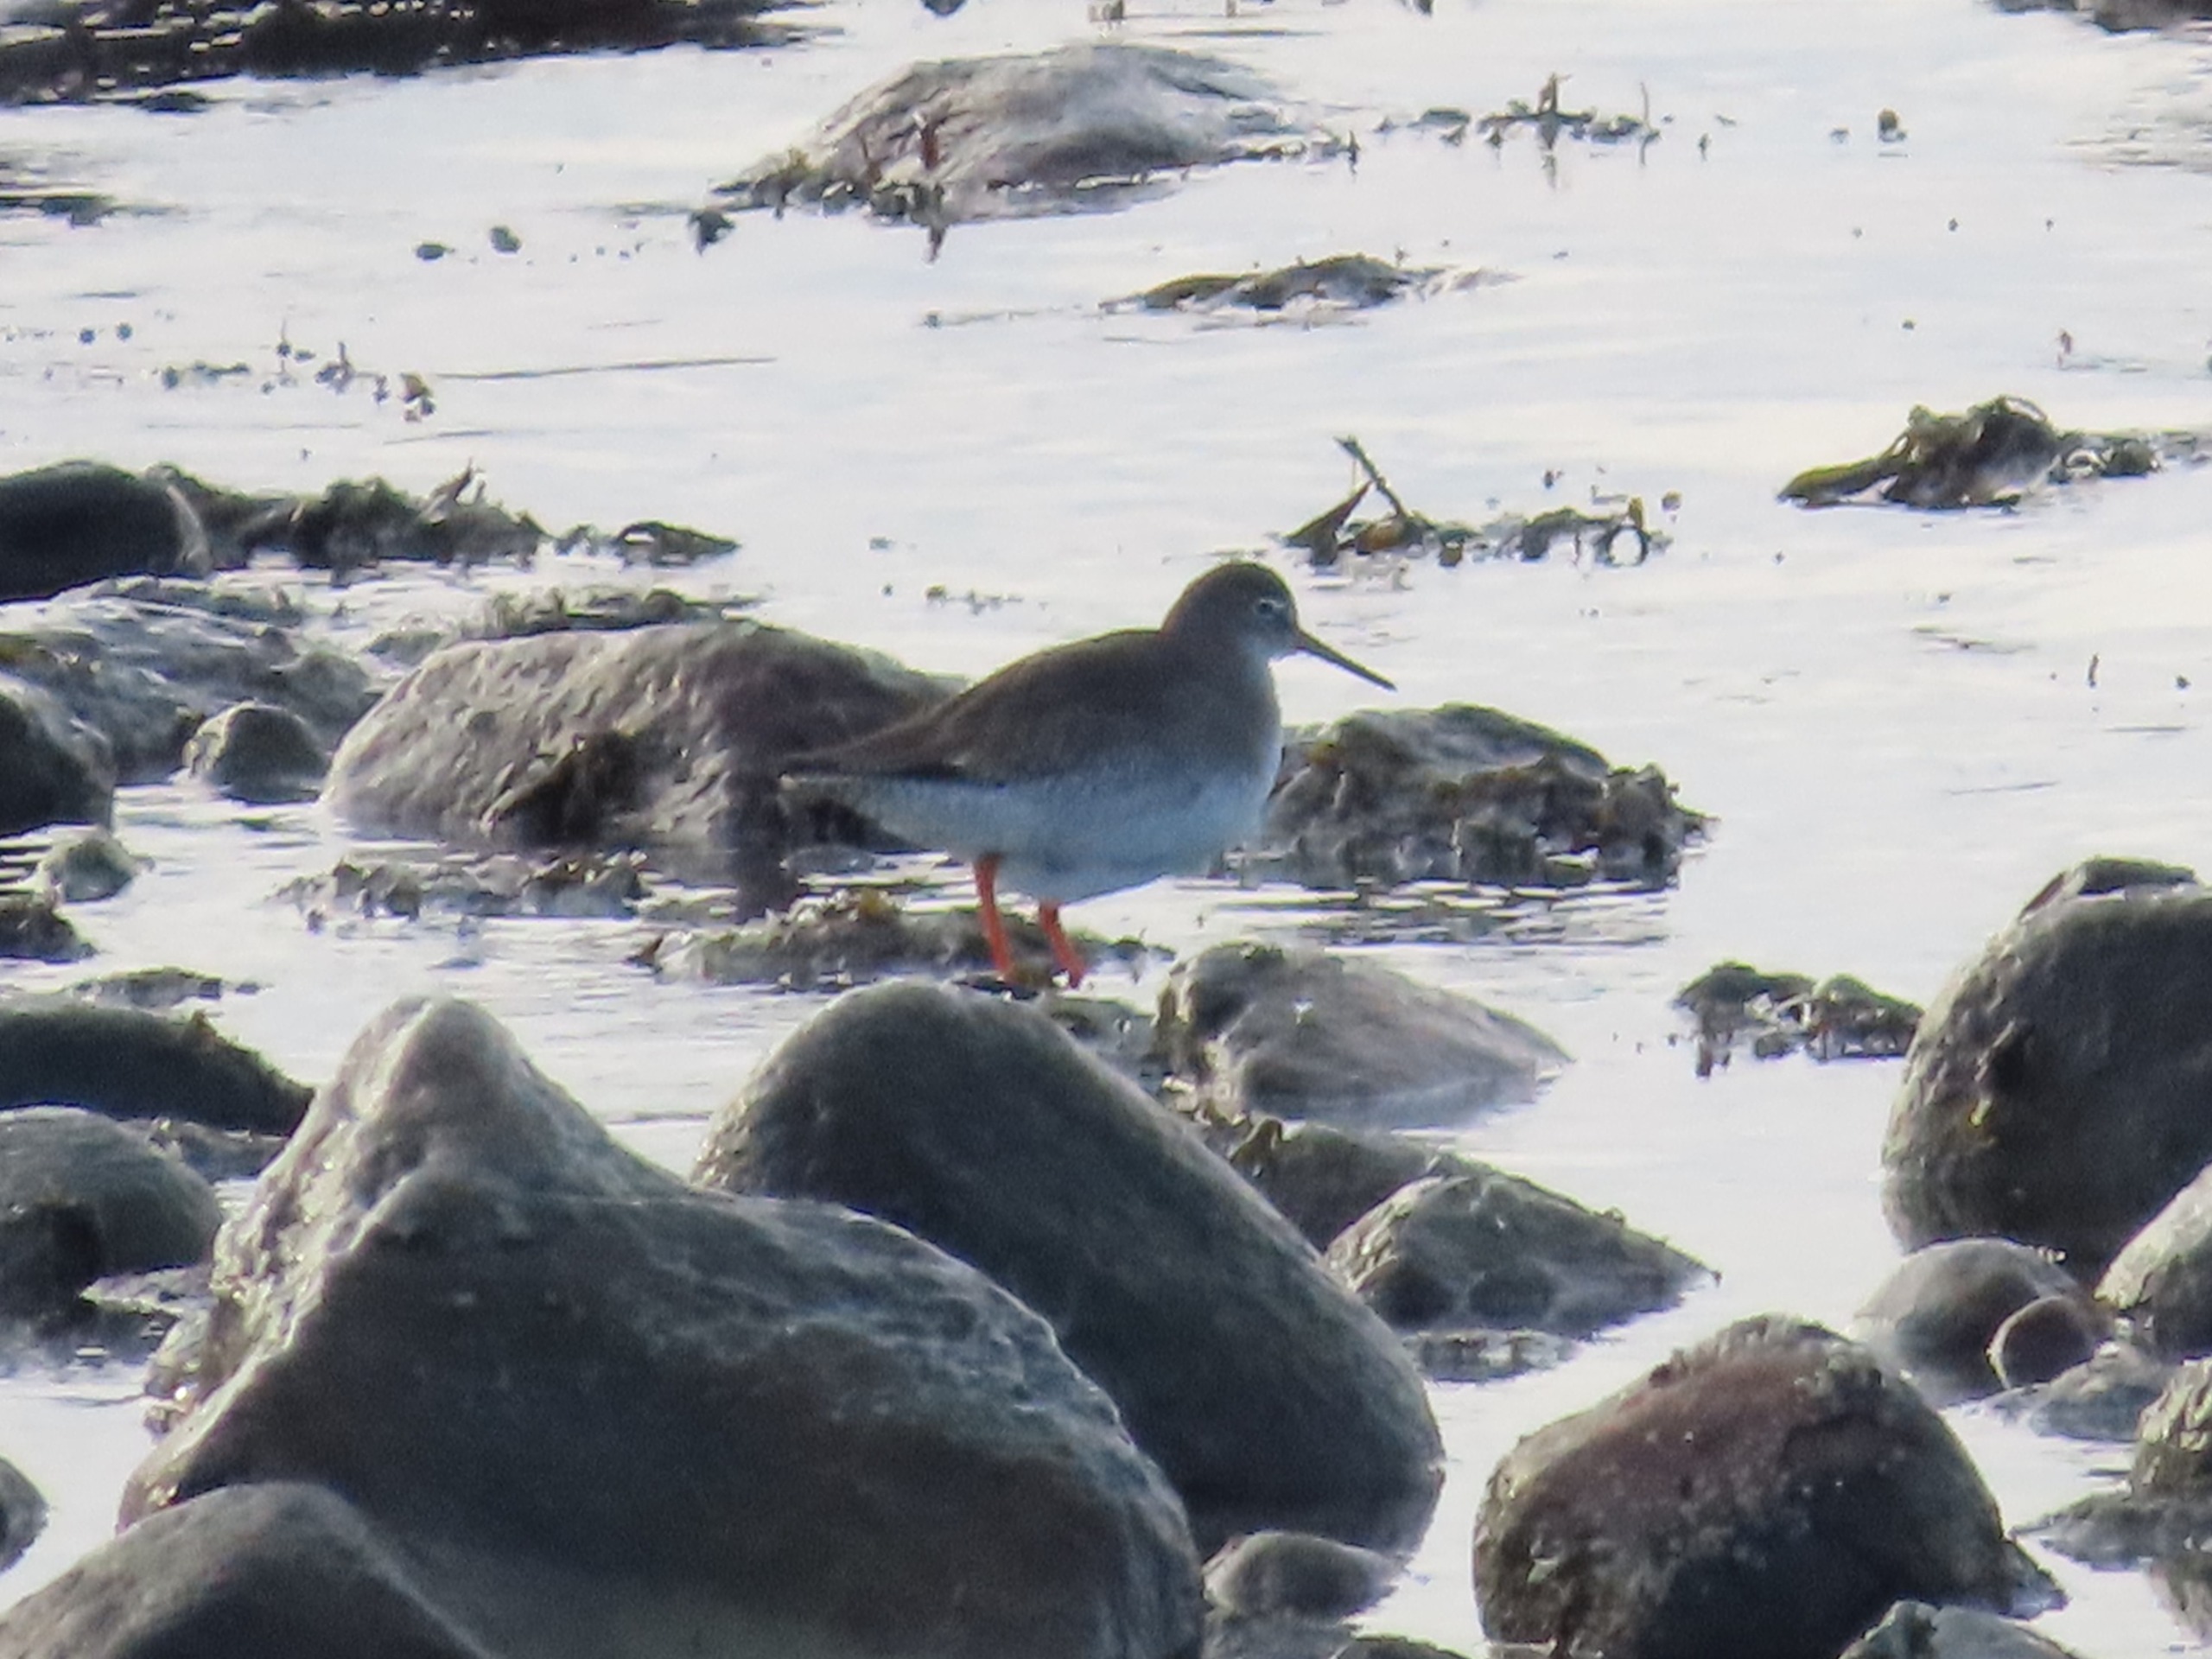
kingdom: Animalia
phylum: Chordata
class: Aves
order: Charadriiformes
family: Scolopacidae
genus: Tringa
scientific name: Tringa totanus
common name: Rødben
